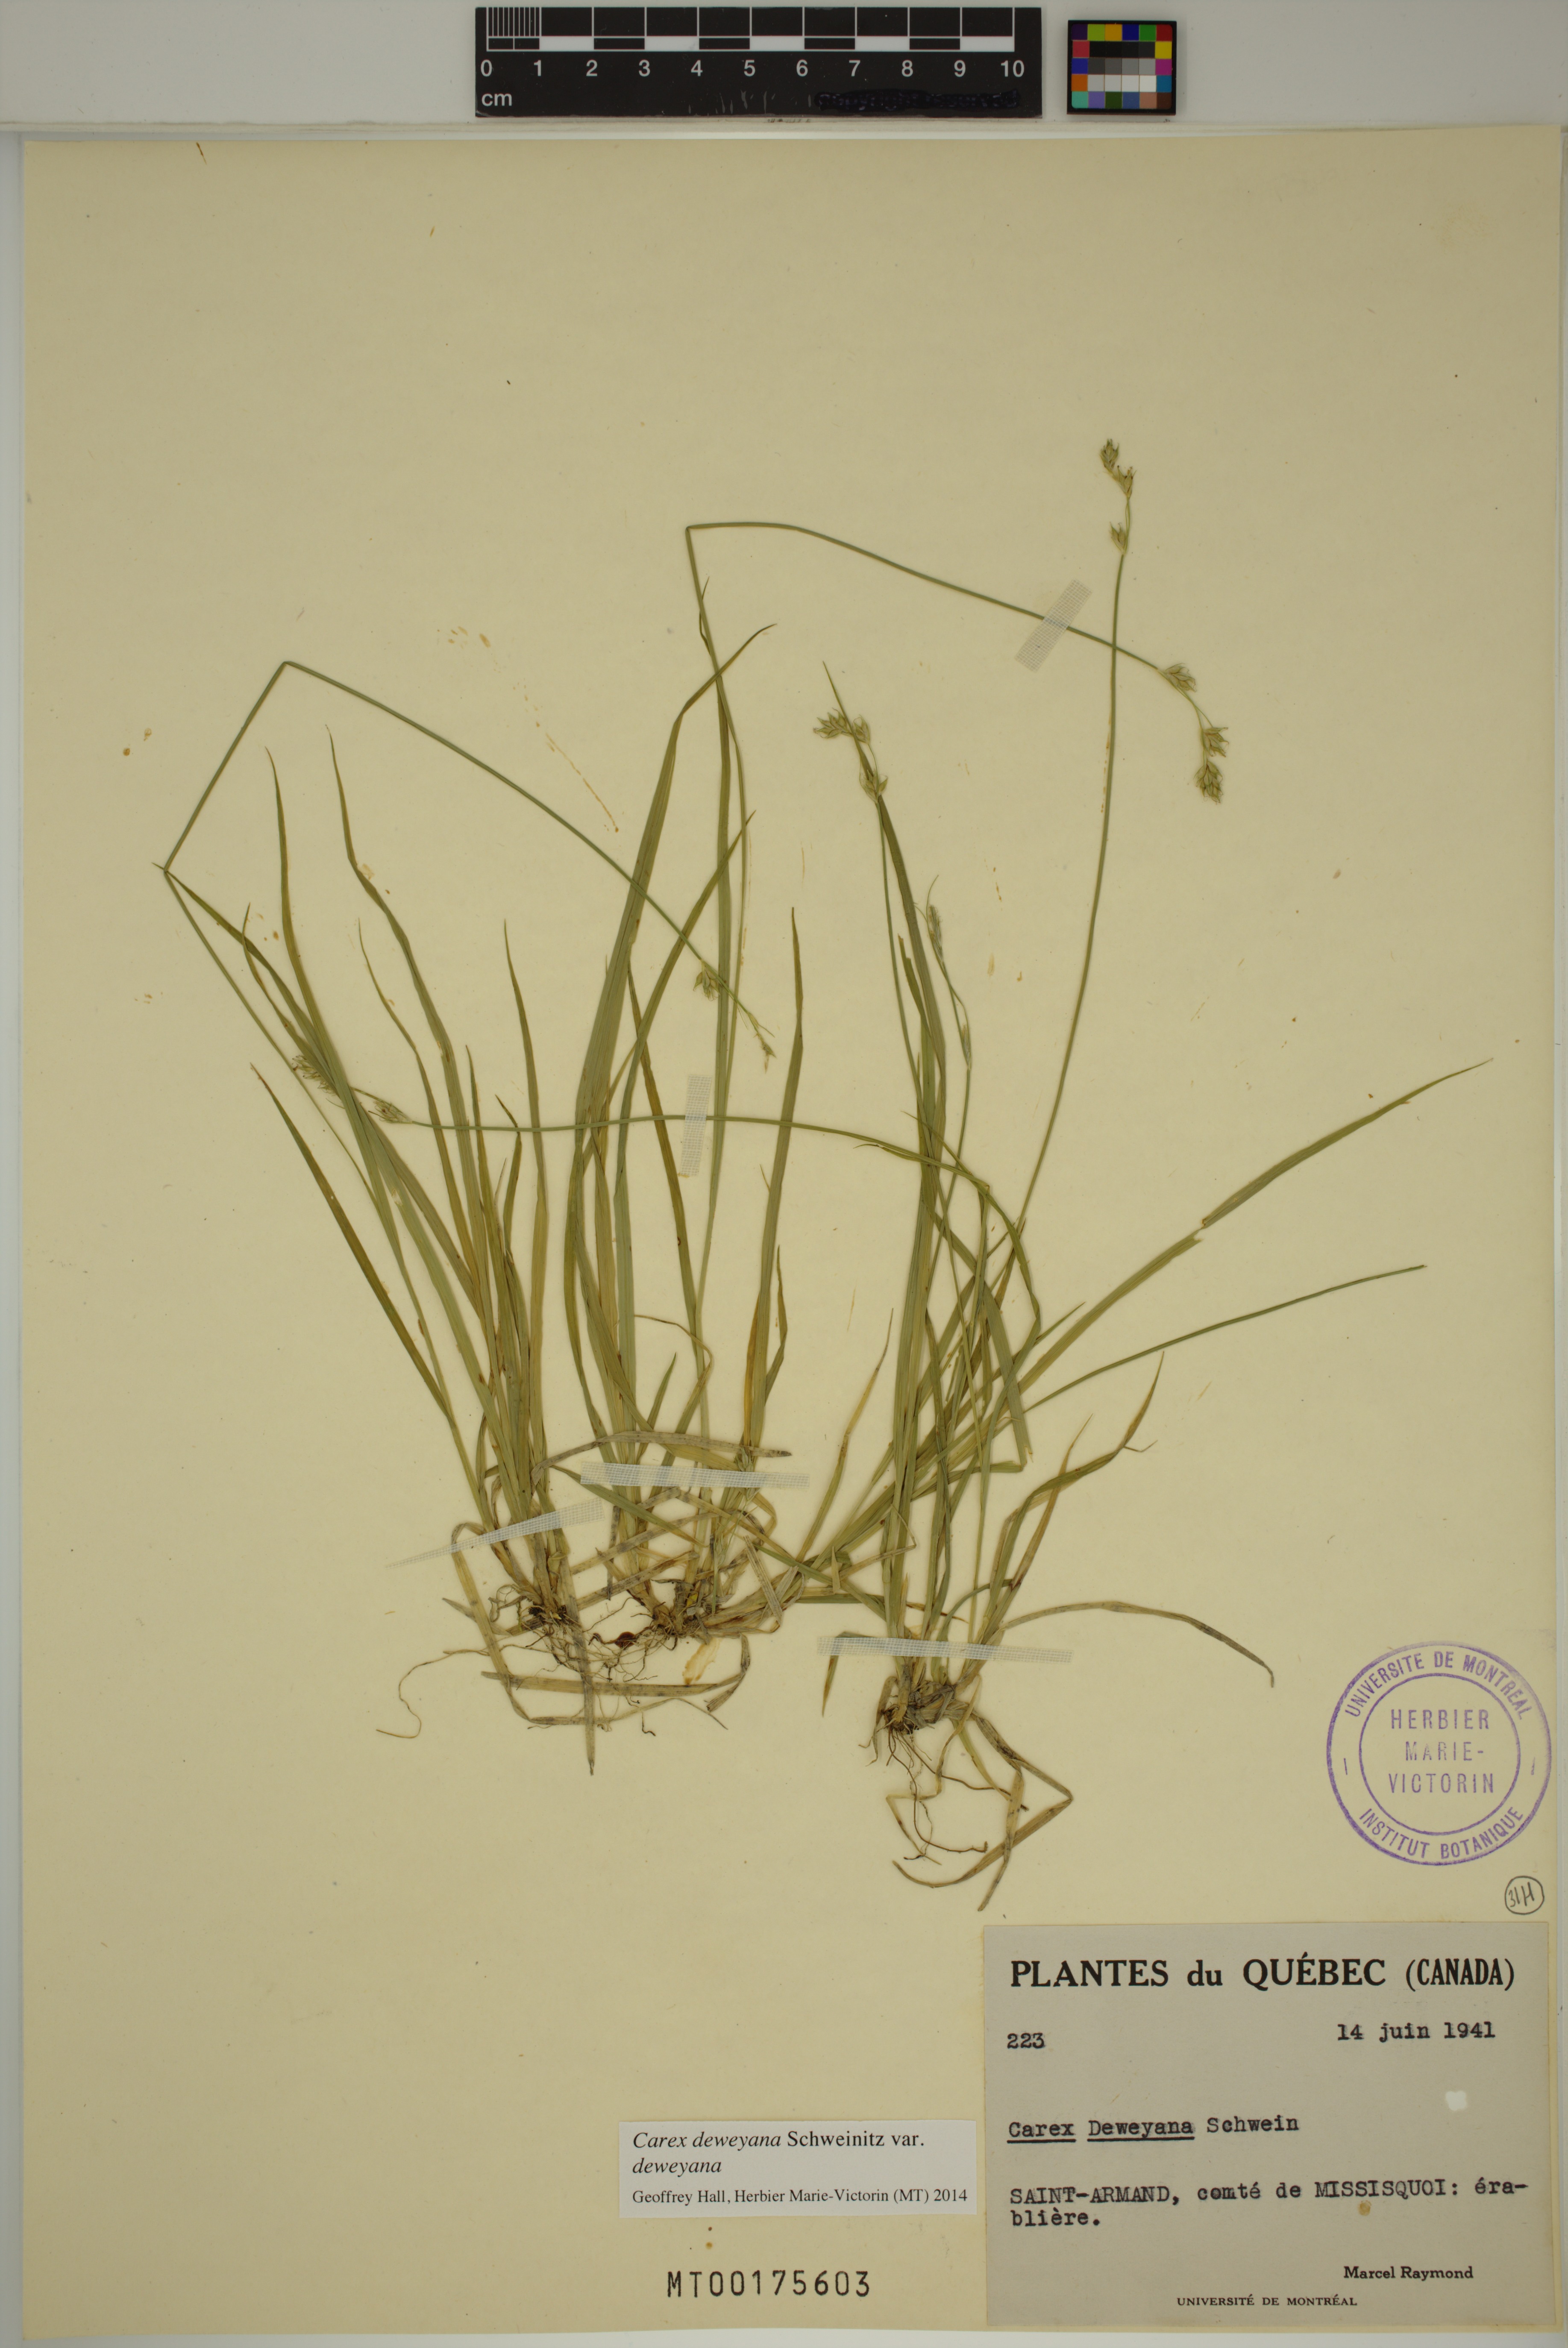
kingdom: Plantae
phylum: Tracheophyta
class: Liliopsida
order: Poales
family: Cyperaceae
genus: Carex
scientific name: Carex deweyana
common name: Dewey's sedge
